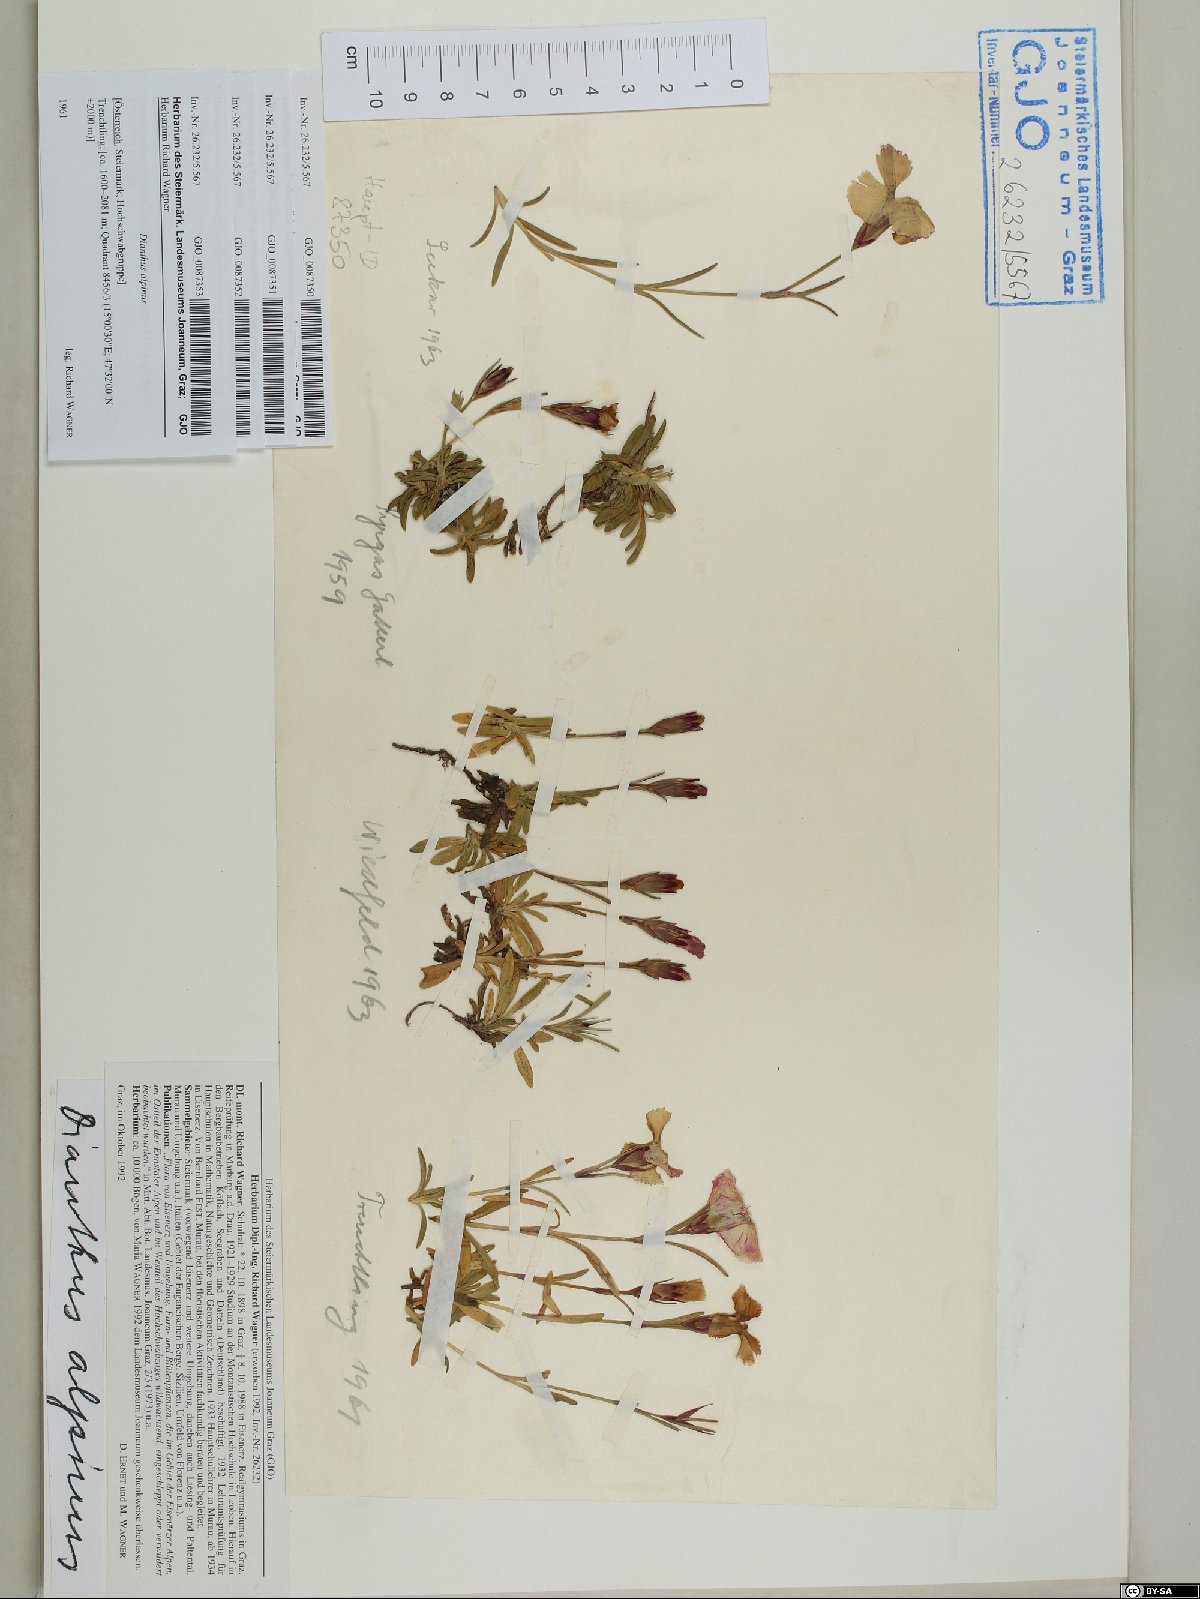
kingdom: Plantae
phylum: Tracheophyta
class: Magnoliopsida
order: Caryophyllales
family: Caryophyllaceae
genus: Dianthus
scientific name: Dianthus alpinus
